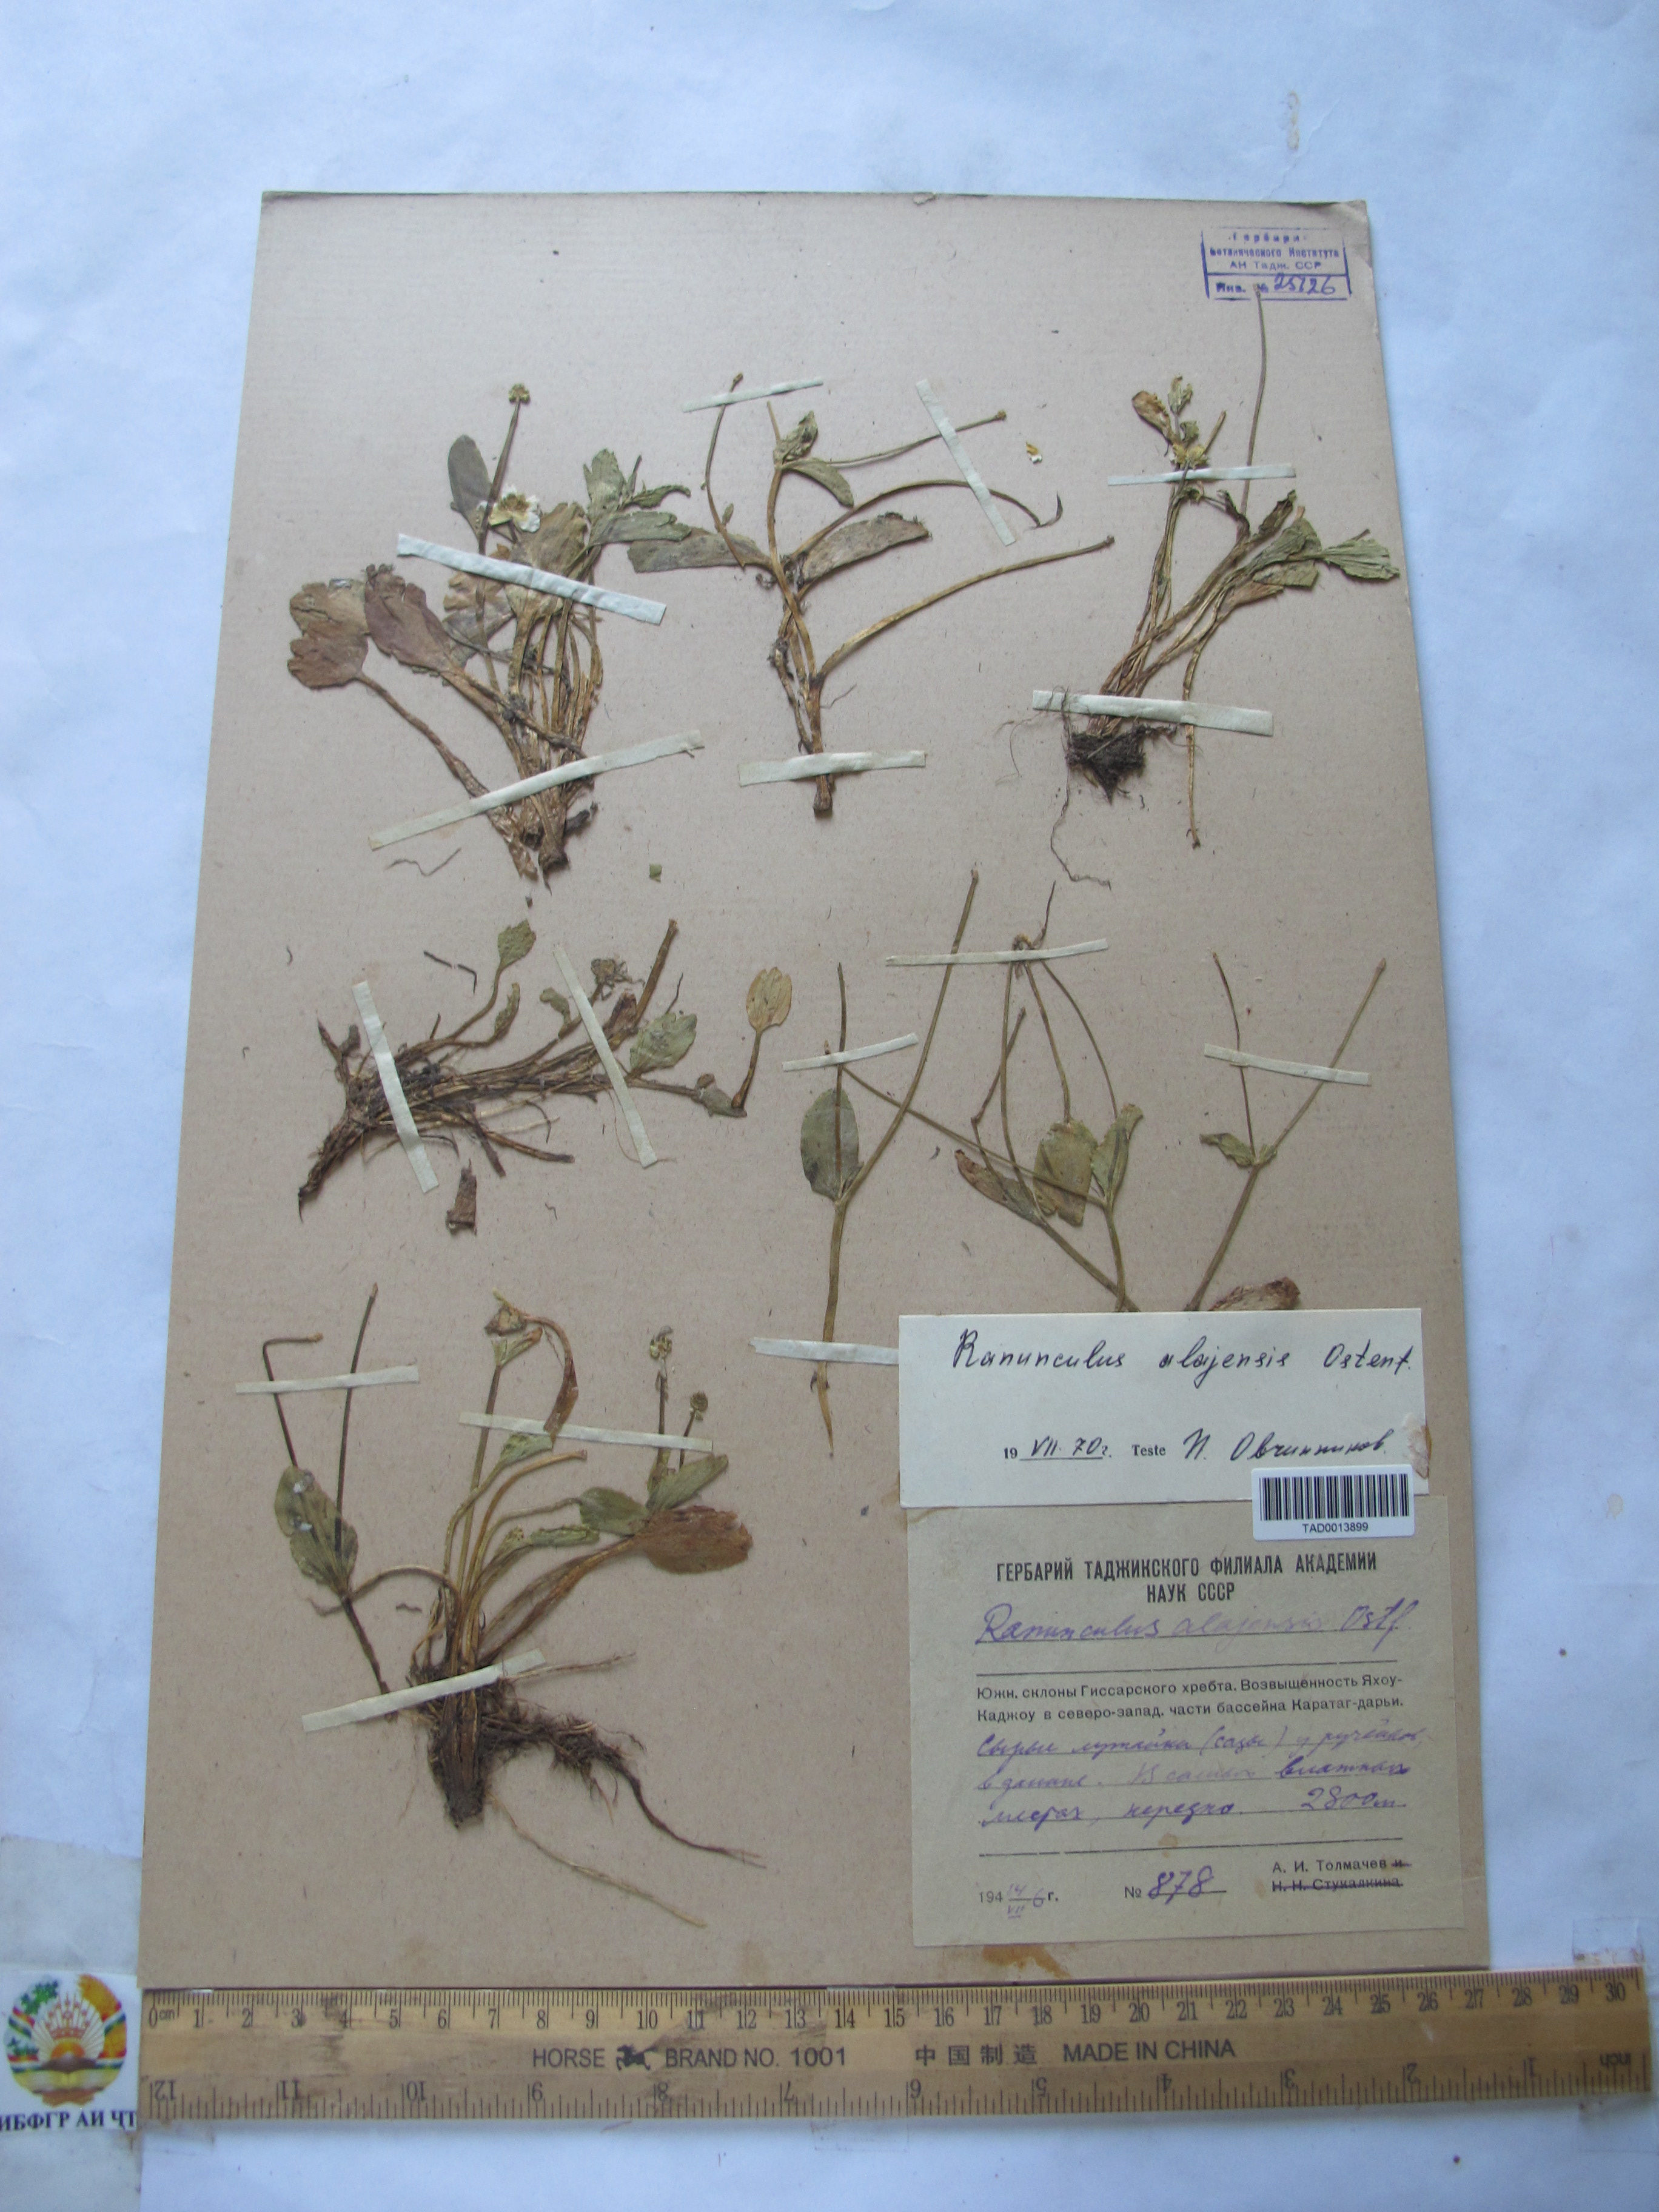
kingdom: Plantae
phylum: Tracheophyta
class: Magnoliopsida
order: Ranunculales
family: Ranunculaceae
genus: Ranunculus
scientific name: Ranunculus alaiensis
